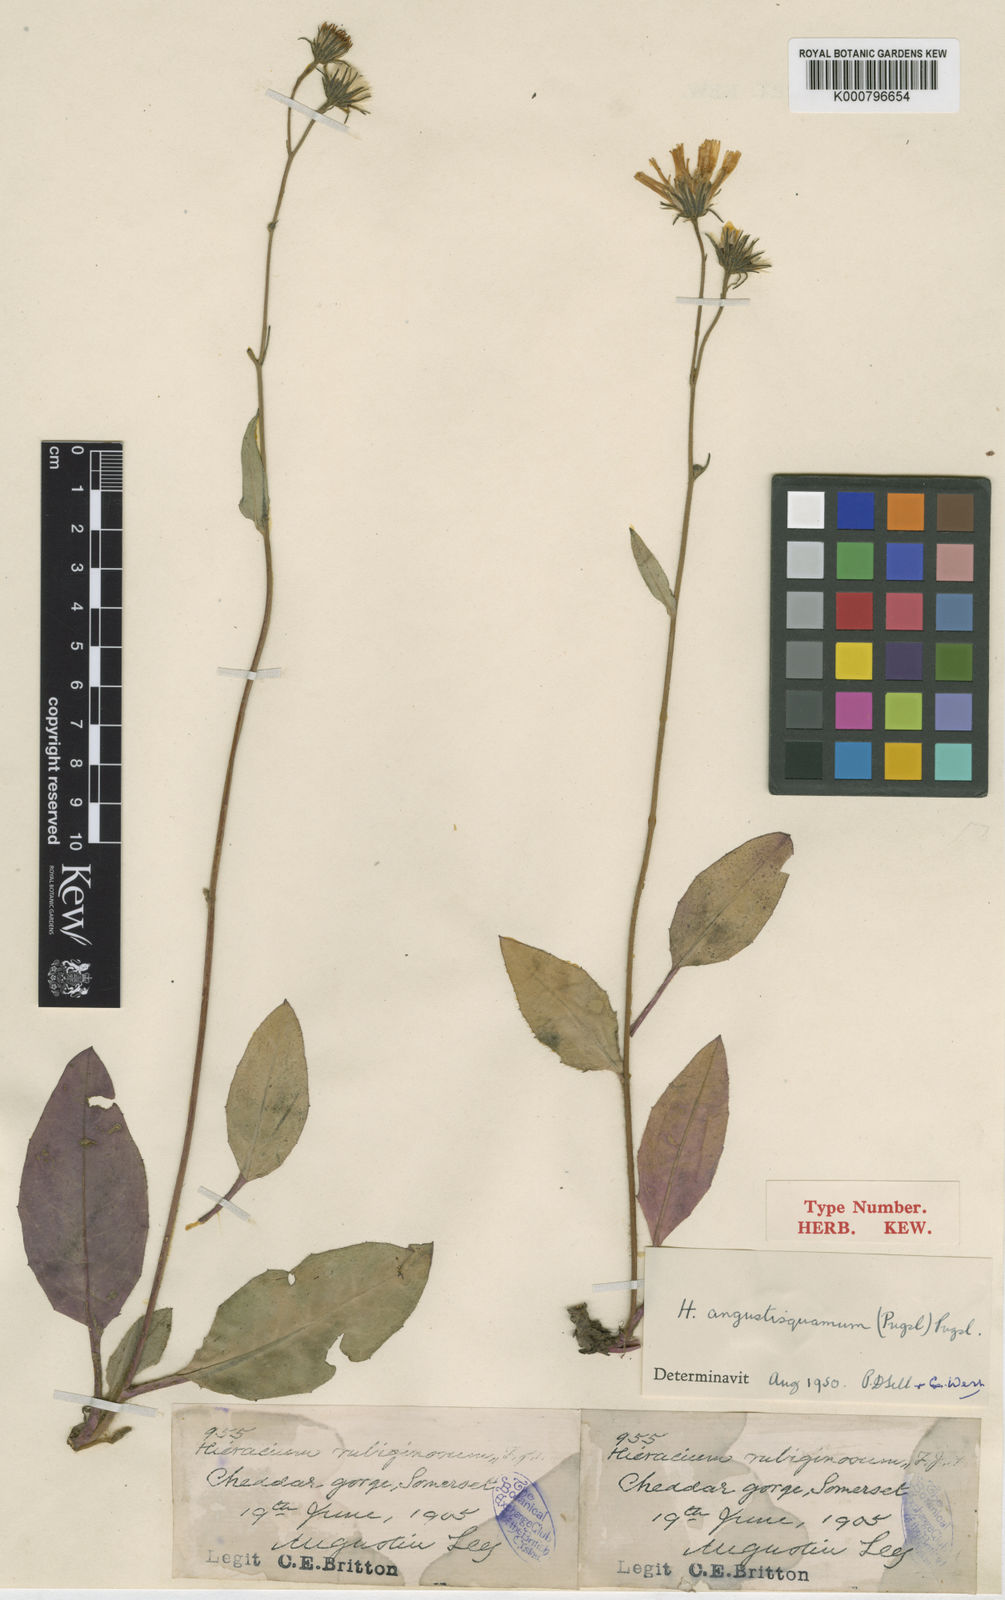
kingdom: Plantae
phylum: Tracheophyta
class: Magnoliopsida
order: Asterales
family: Asteraceae
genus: Hieracium
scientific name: Hieracium angustisquamum
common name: Red-tinted hawkweed
